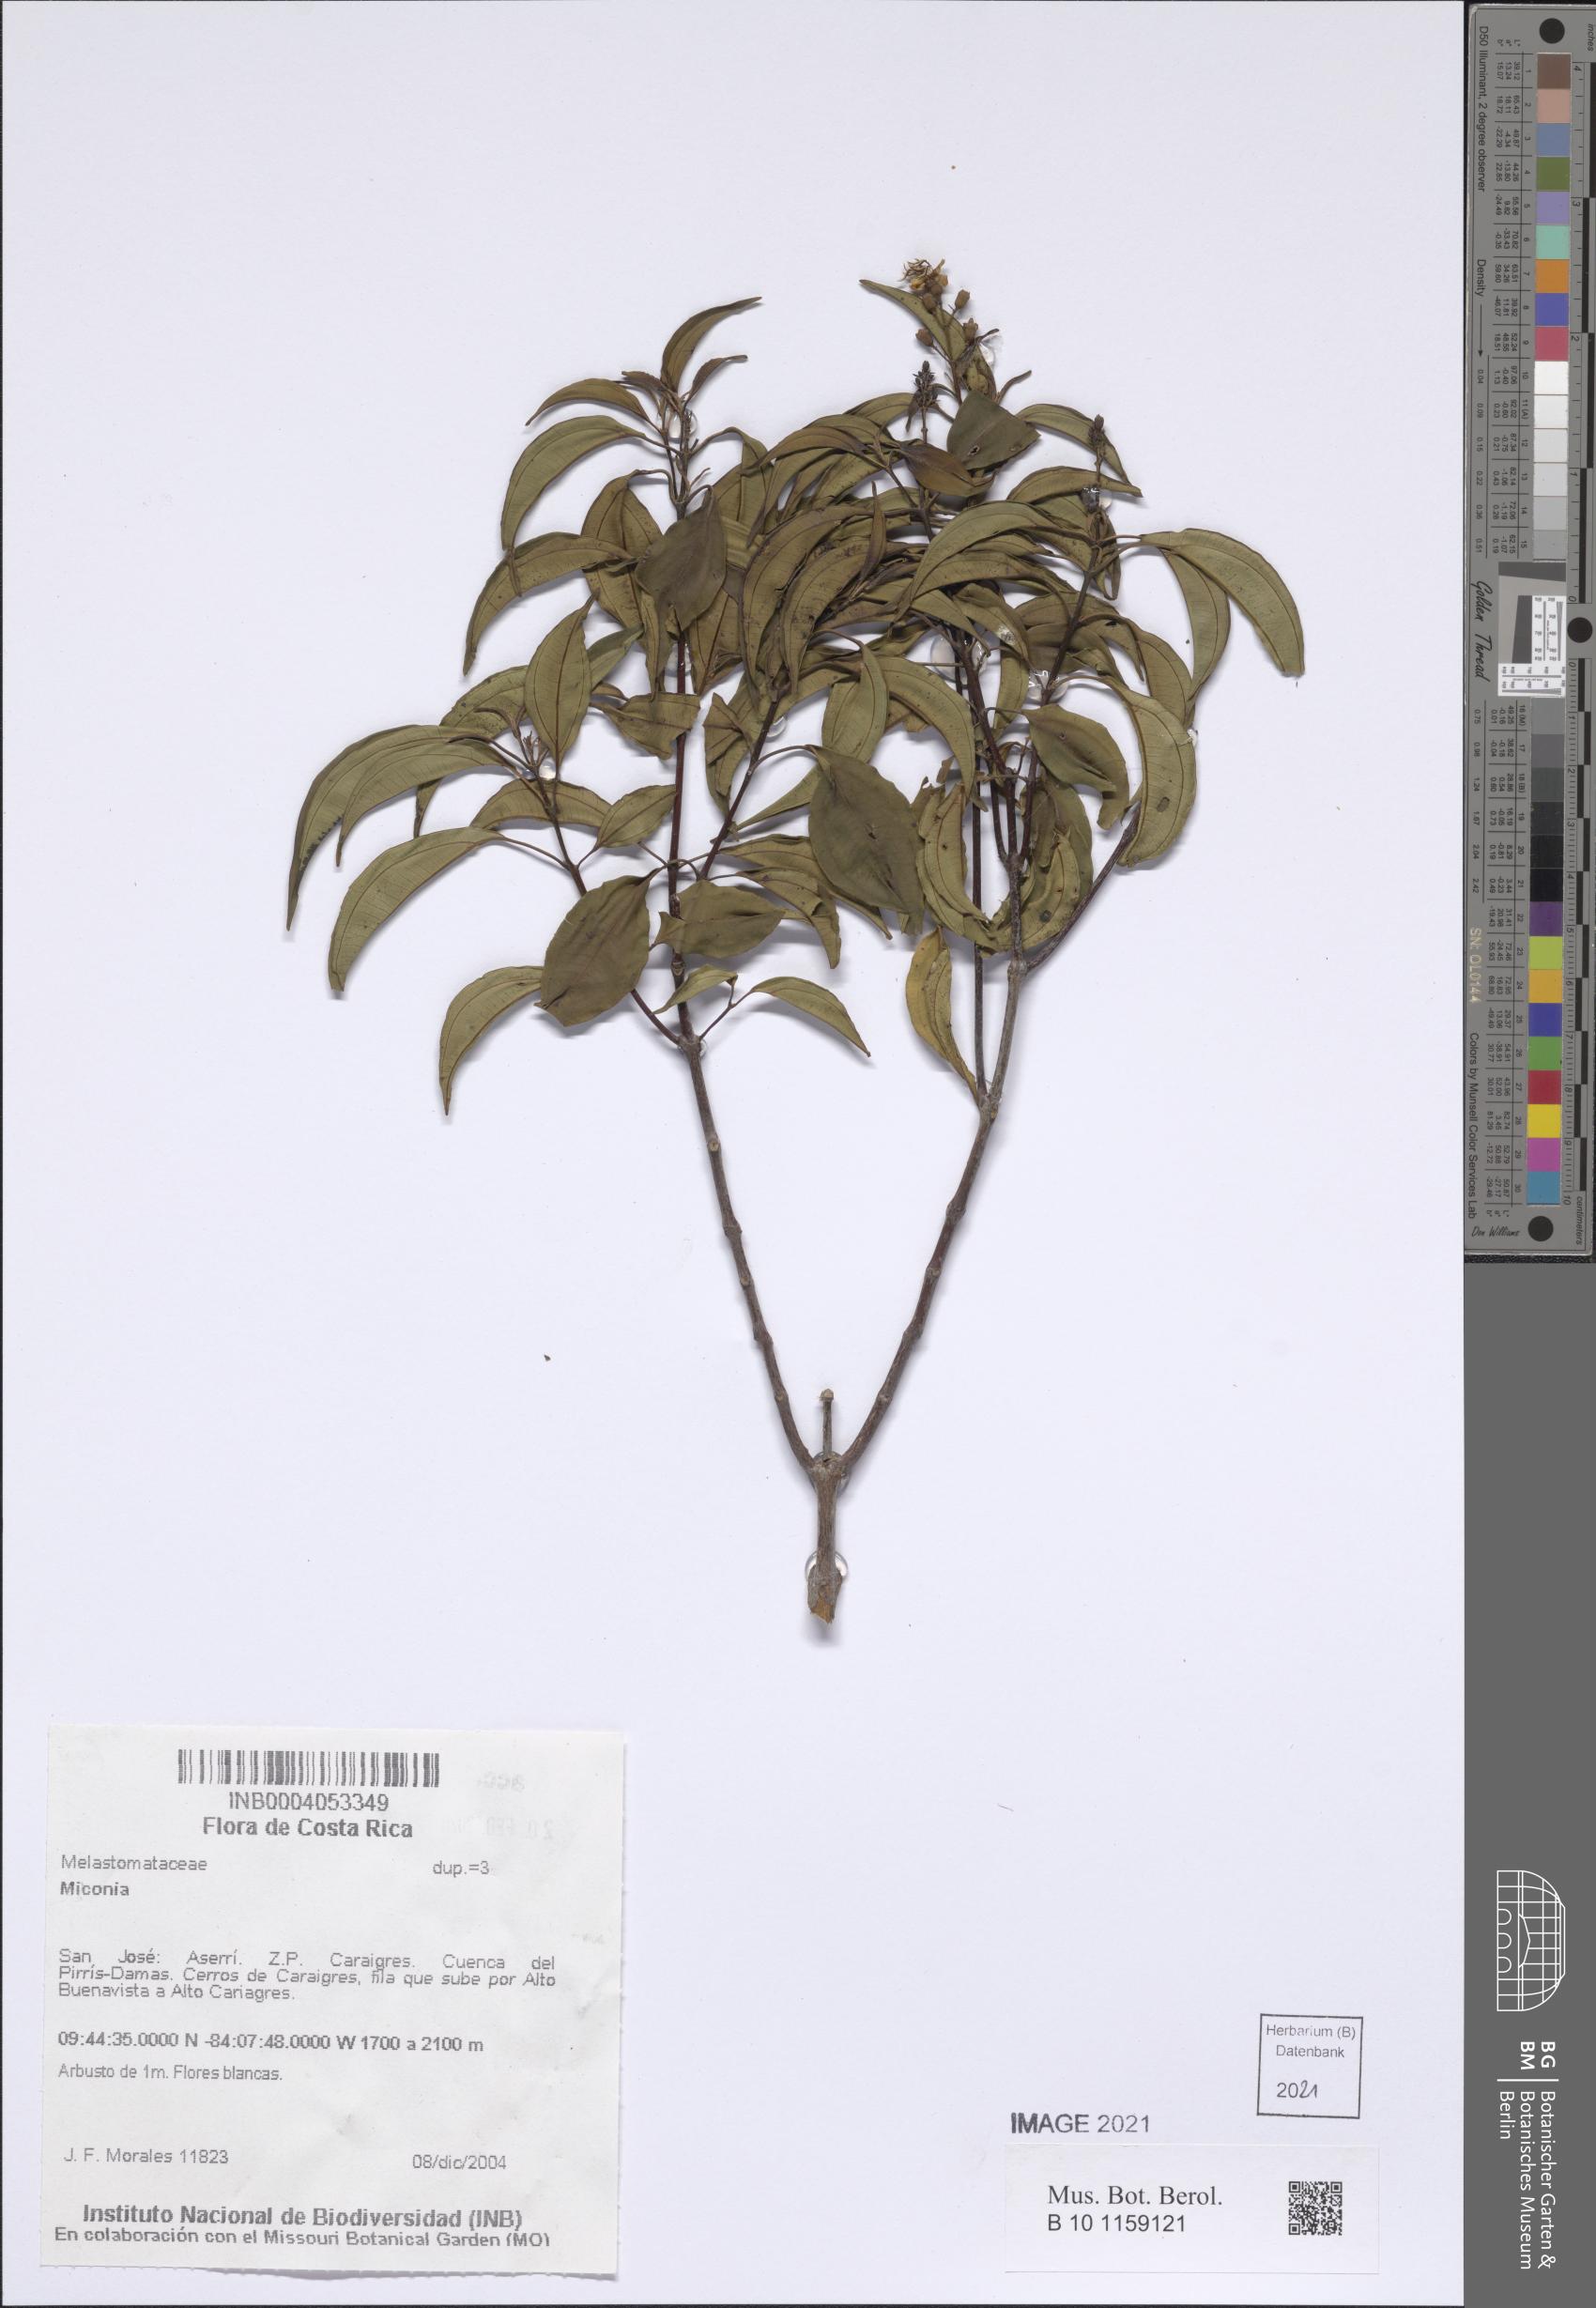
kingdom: Plantae
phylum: Tracheophyta
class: Magnoliopsida
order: Myrtales
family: Melastomataceae
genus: Miconia
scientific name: Miconia
